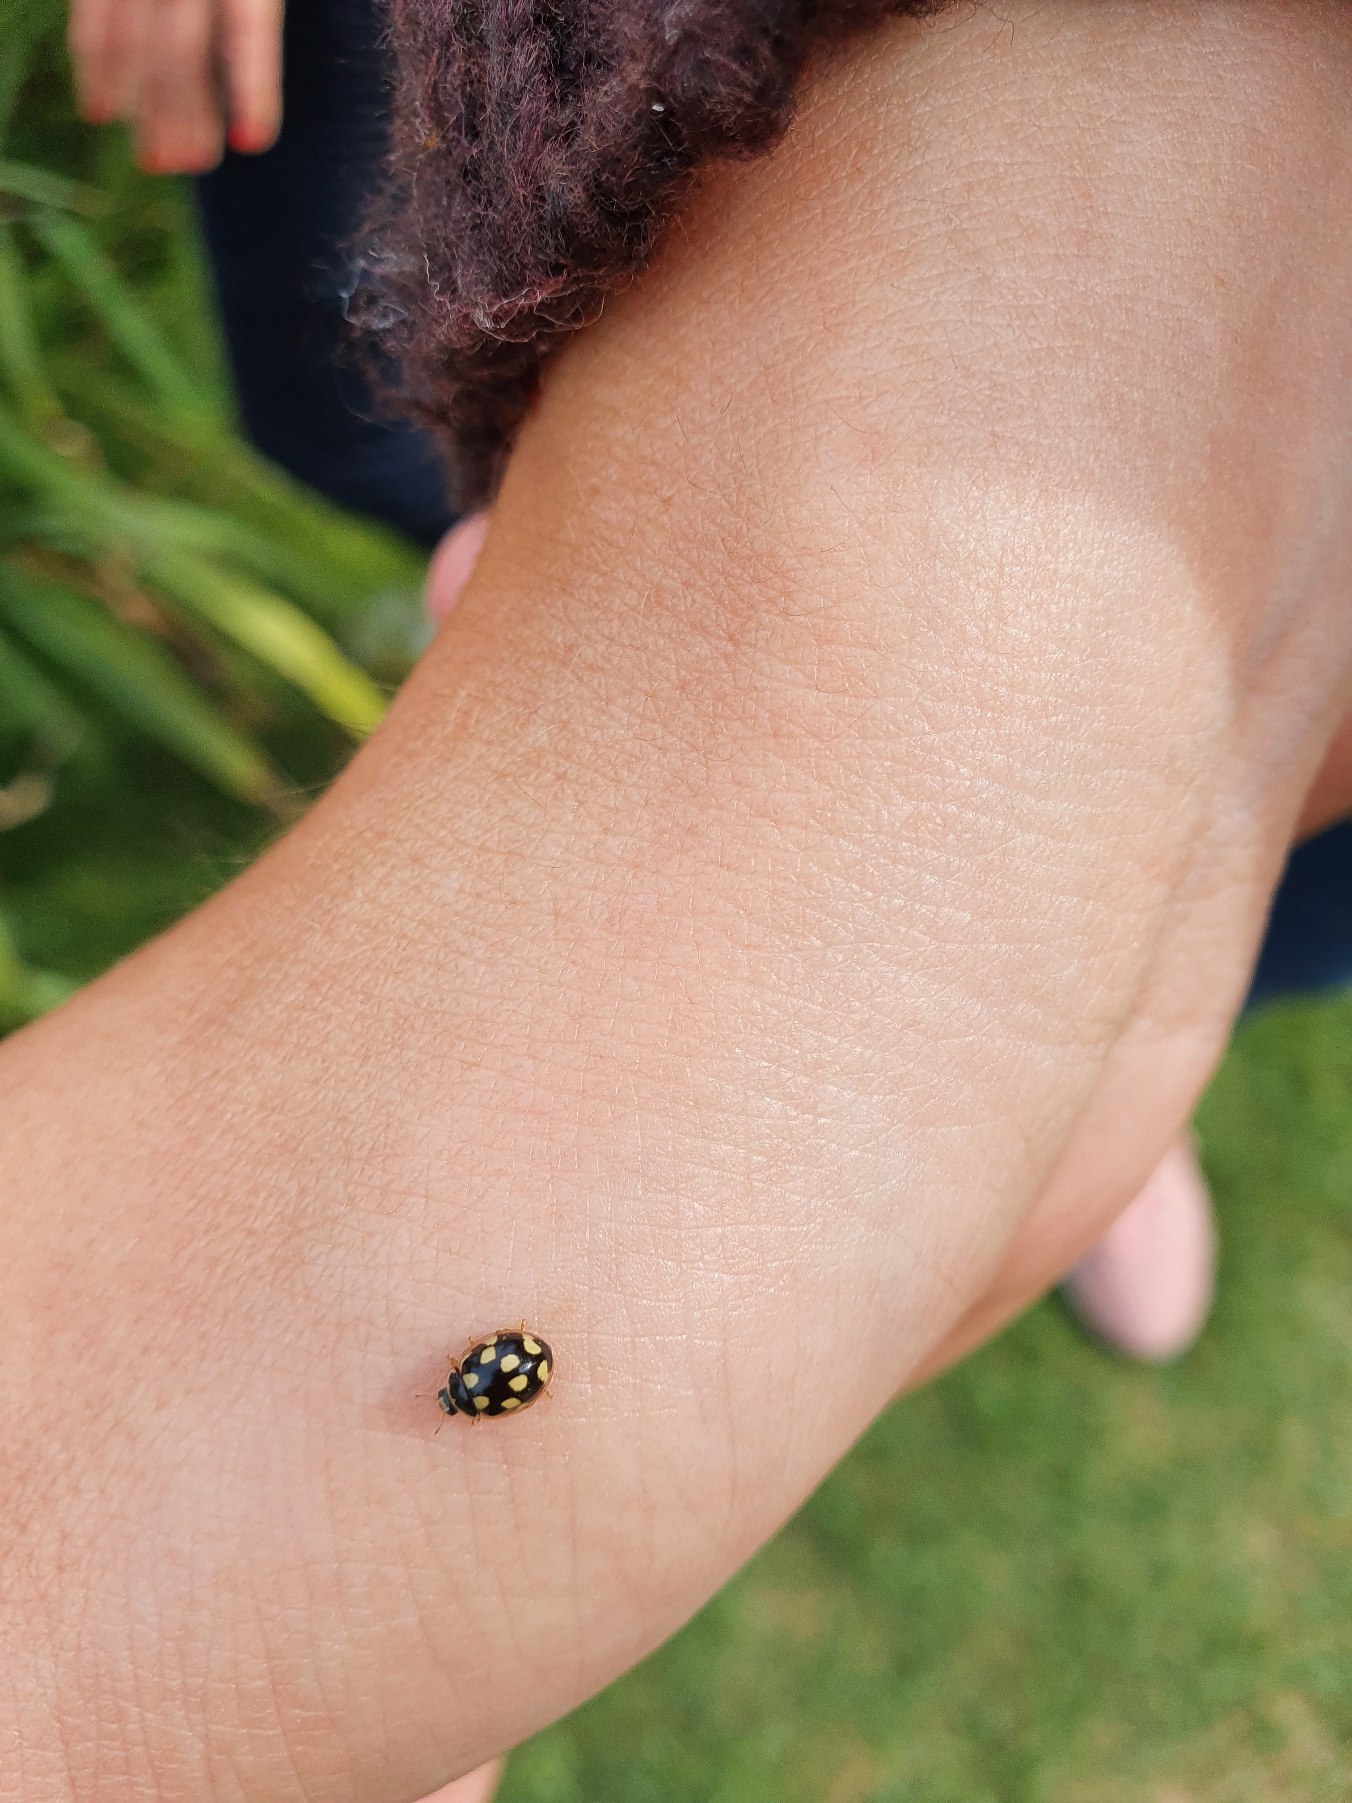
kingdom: Animalia
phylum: Arthropoda
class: Insecta
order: Coleoptera
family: Coccinellidae
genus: Propylaea
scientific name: Propylaea quatuordecimpunctata
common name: Skakbræt
